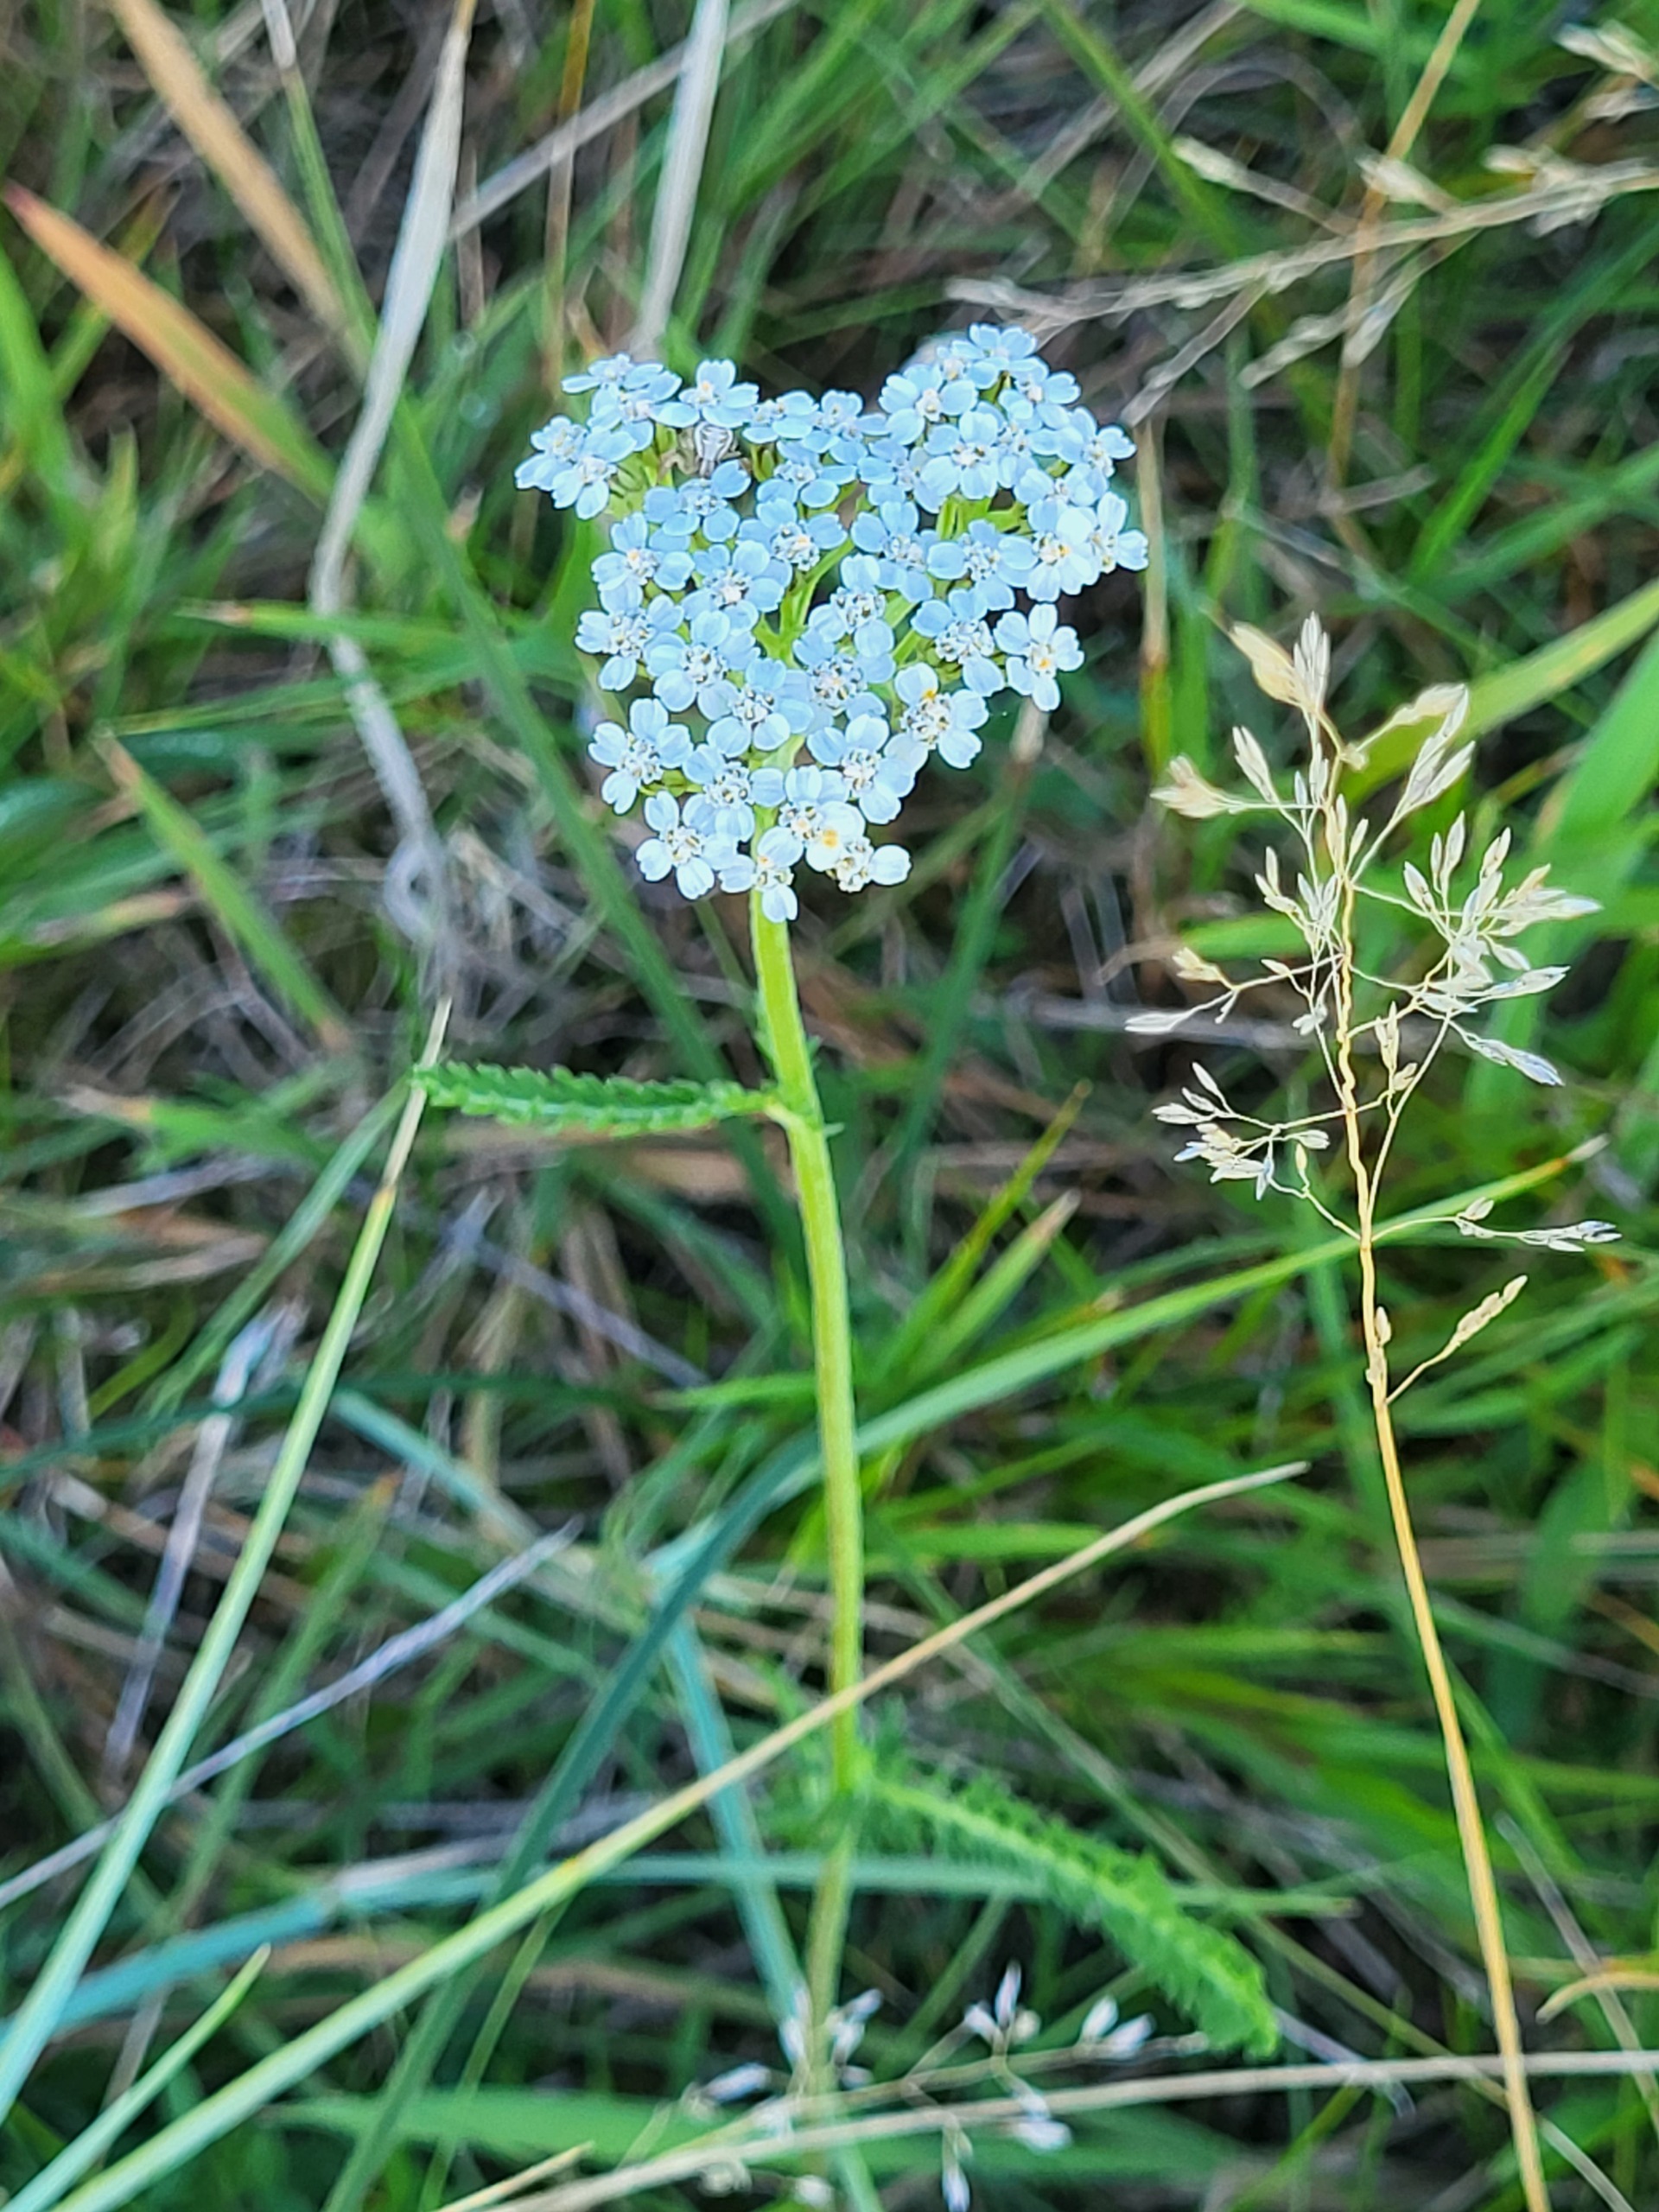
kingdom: Plantae
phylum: Tracheophyta
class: Magnoliopsida
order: Asterales
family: Asteraceae
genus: Achillea
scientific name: Achillea millefolium
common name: Almindelig røllike
